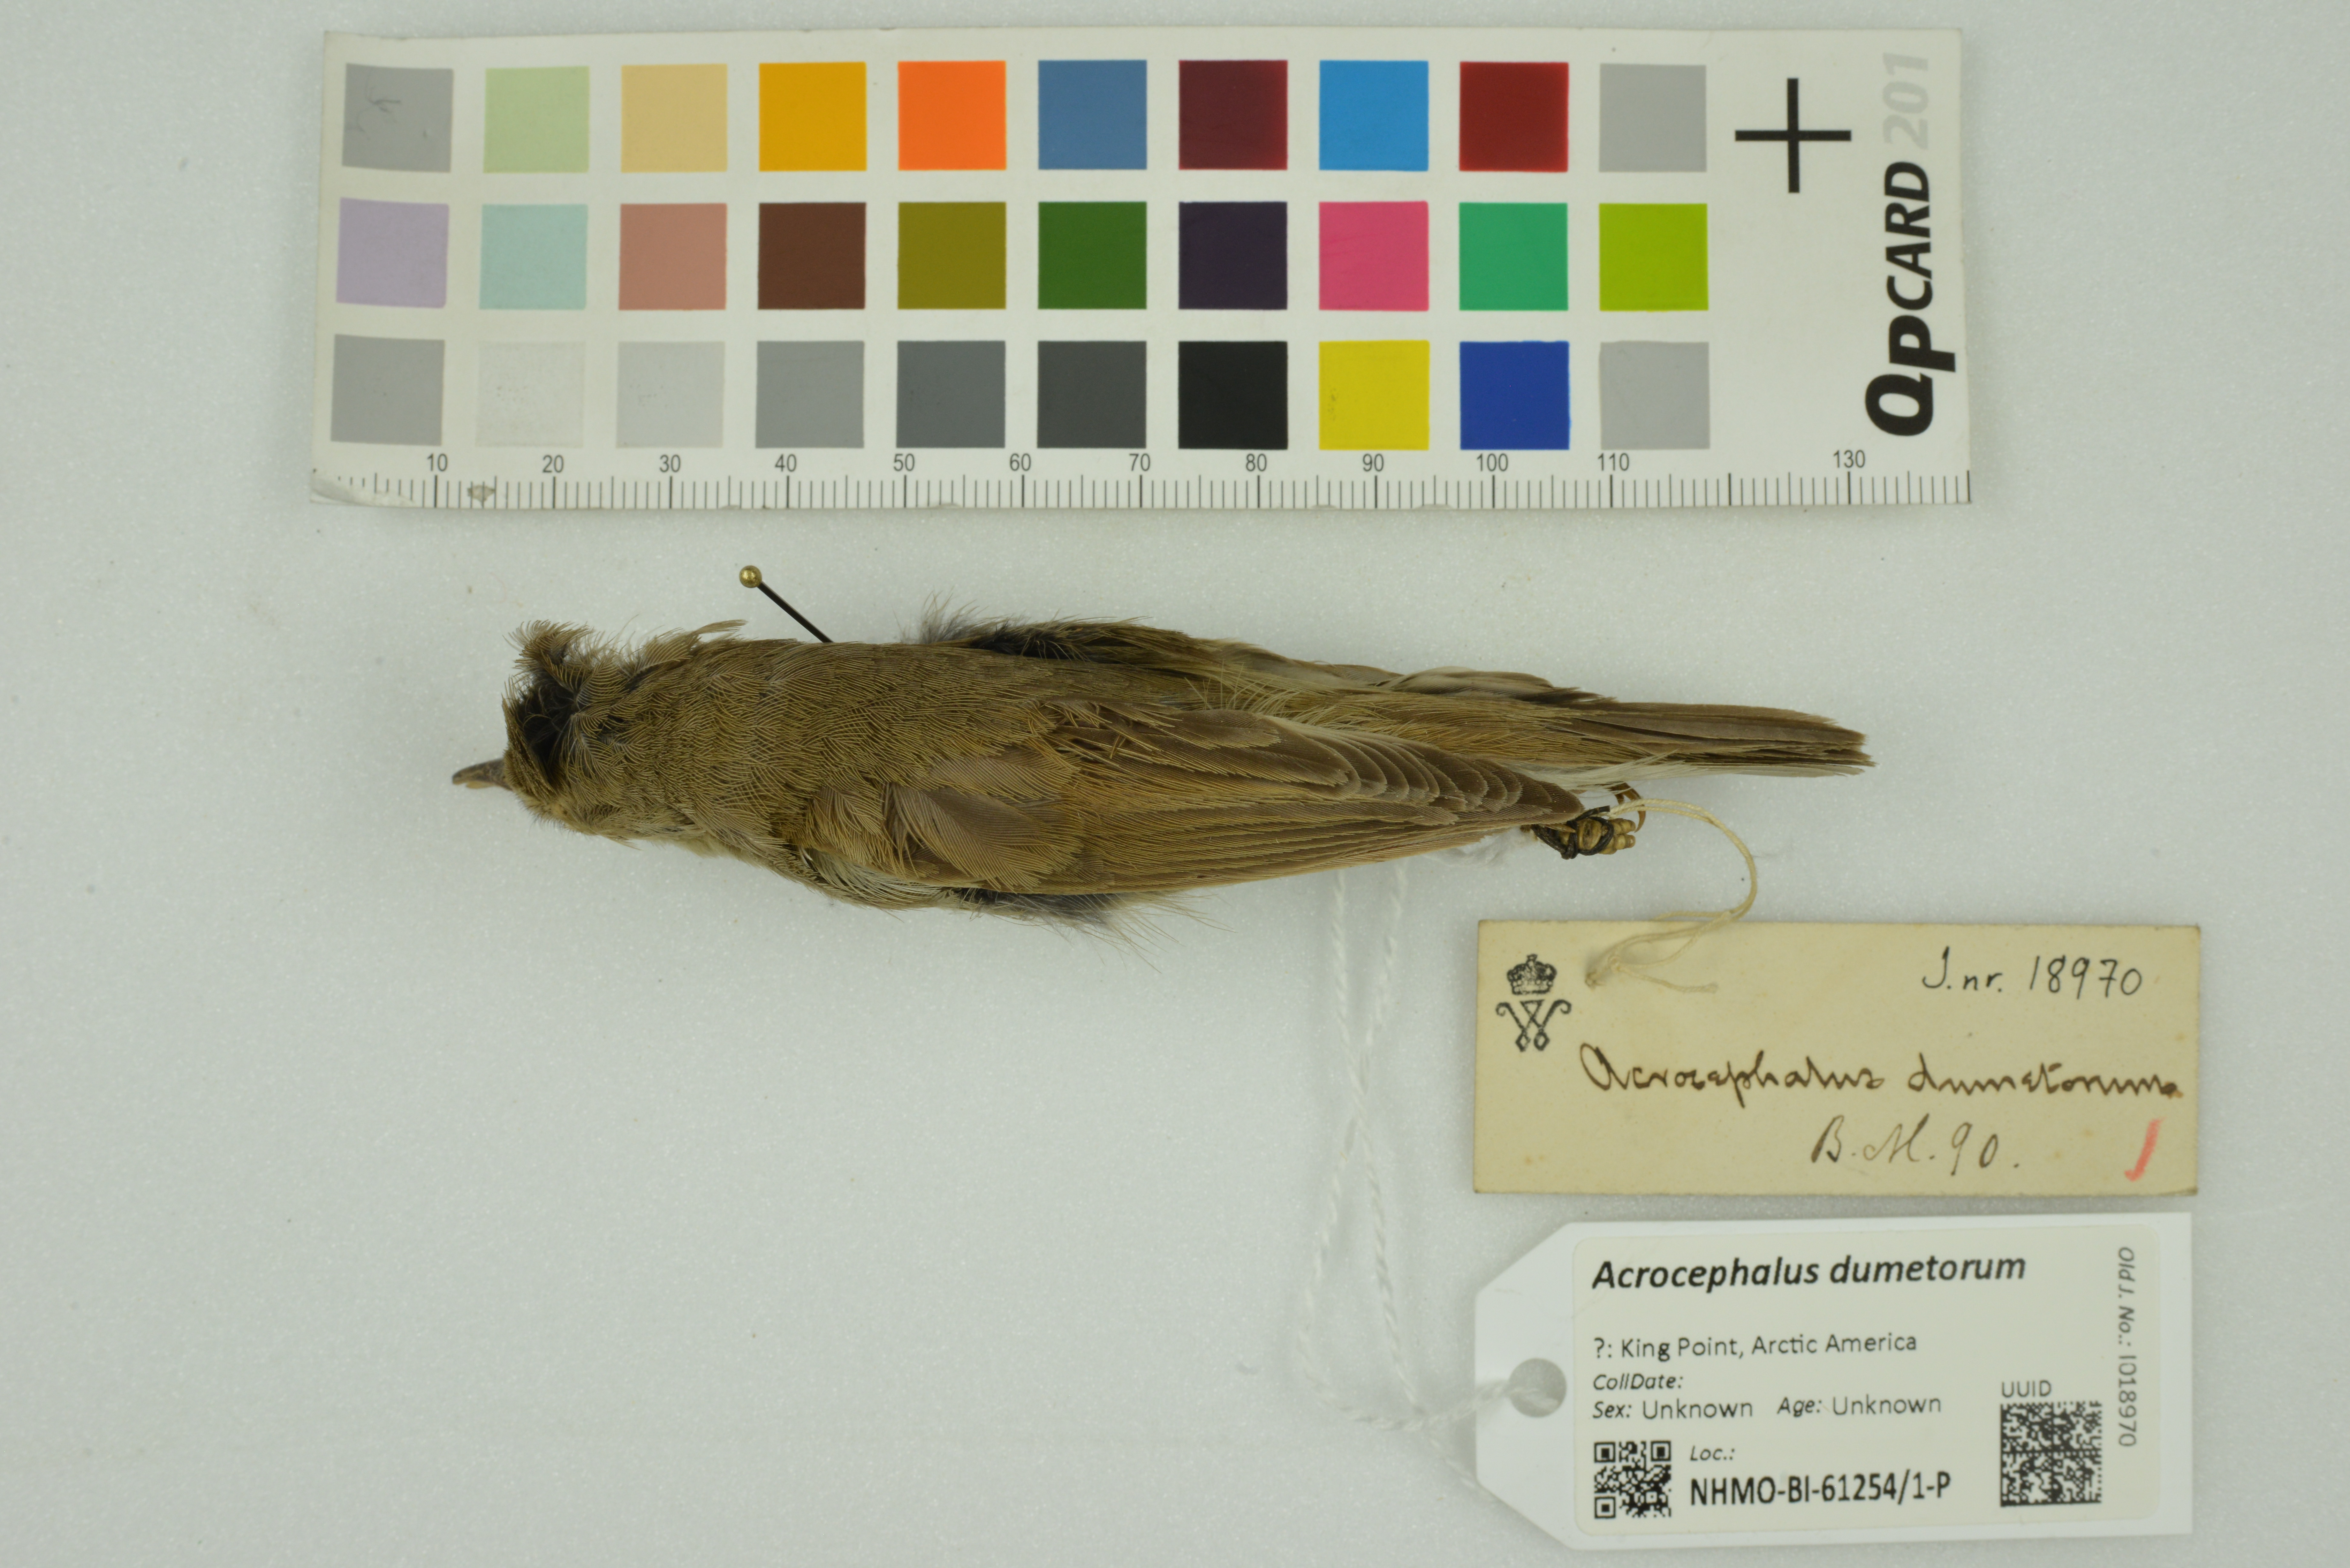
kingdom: Animalia
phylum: Chordata
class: Aves
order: Passeriformes
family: Acrocephalidae
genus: Acrocephalus
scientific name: Acrocephalus dumetorum
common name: Blyth's reed warbler
